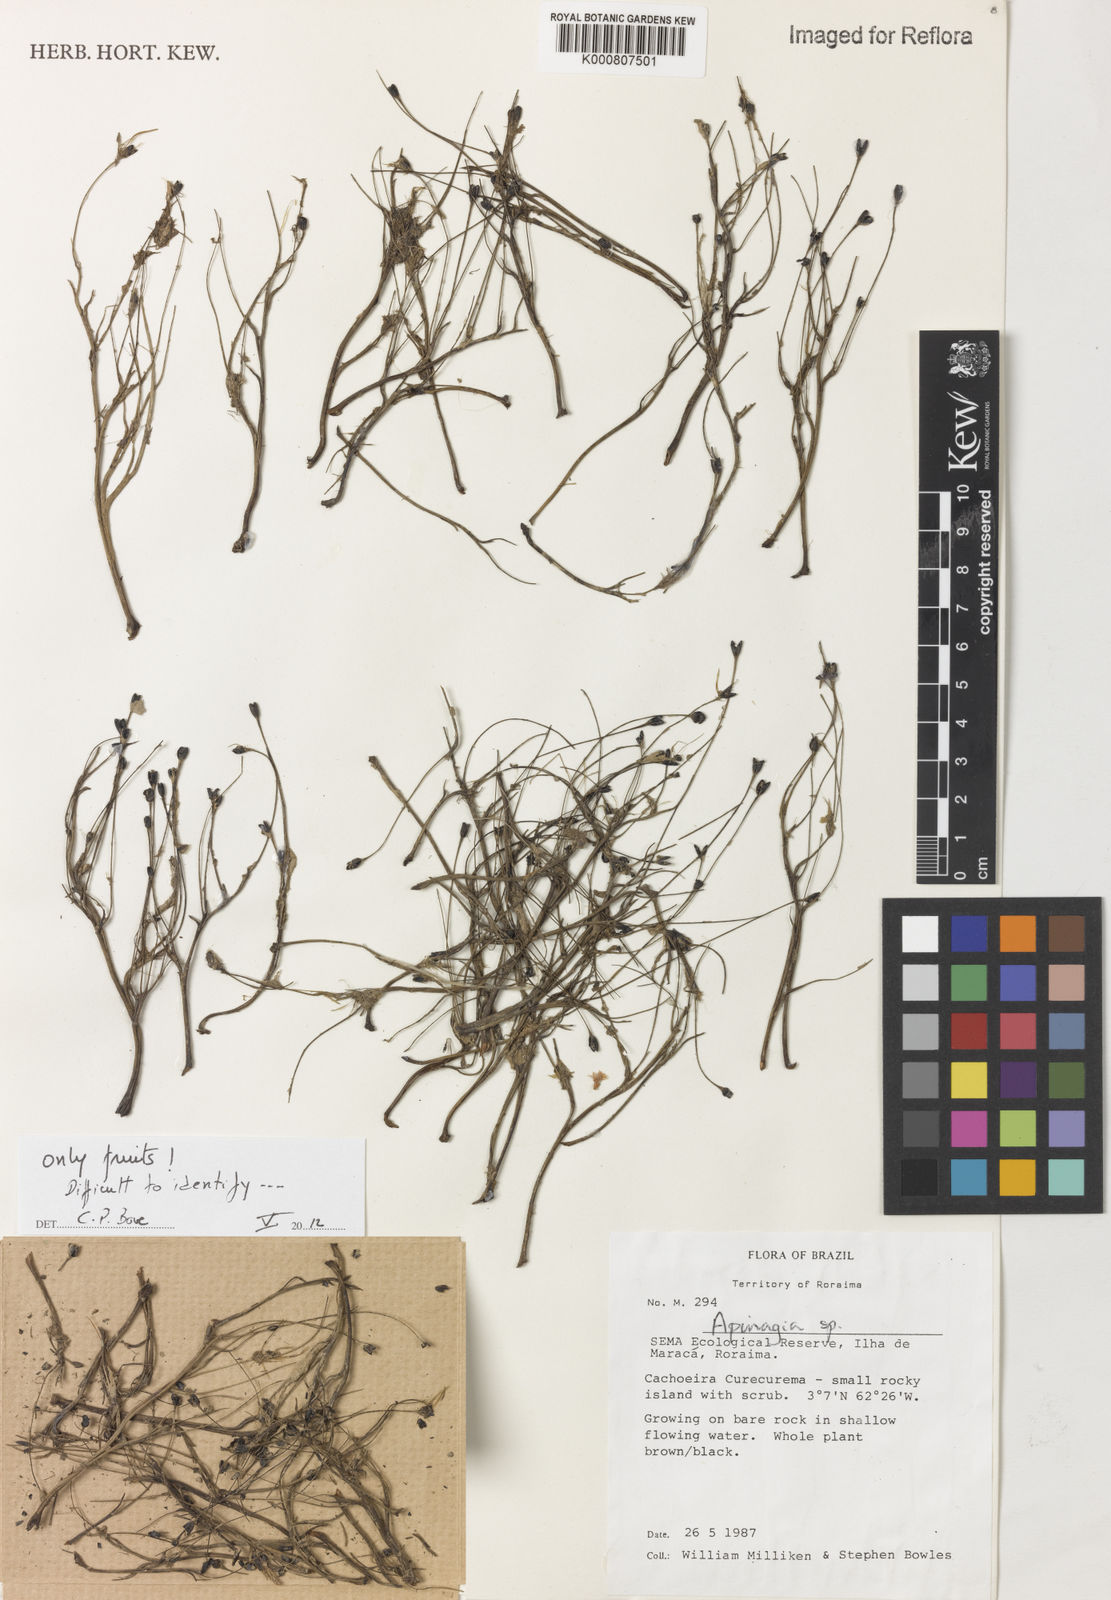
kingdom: Plantae
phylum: Tracheophyta
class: Magnoliopsida
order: Malpighiales
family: Podostemaceae
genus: Apinagia
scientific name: Apinagia
